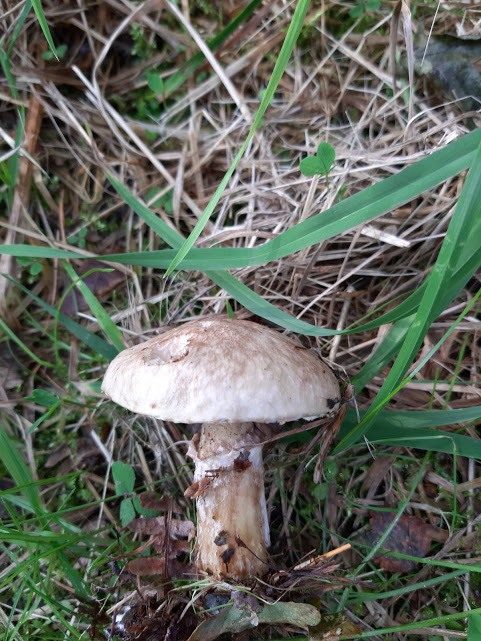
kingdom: Fungi
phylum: Basidiomycota
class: Agaricomycetes
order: Boletales
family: Suillaceae
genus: Suillus
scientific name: Suillus viscidus
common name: olivengrå slimrørhat
